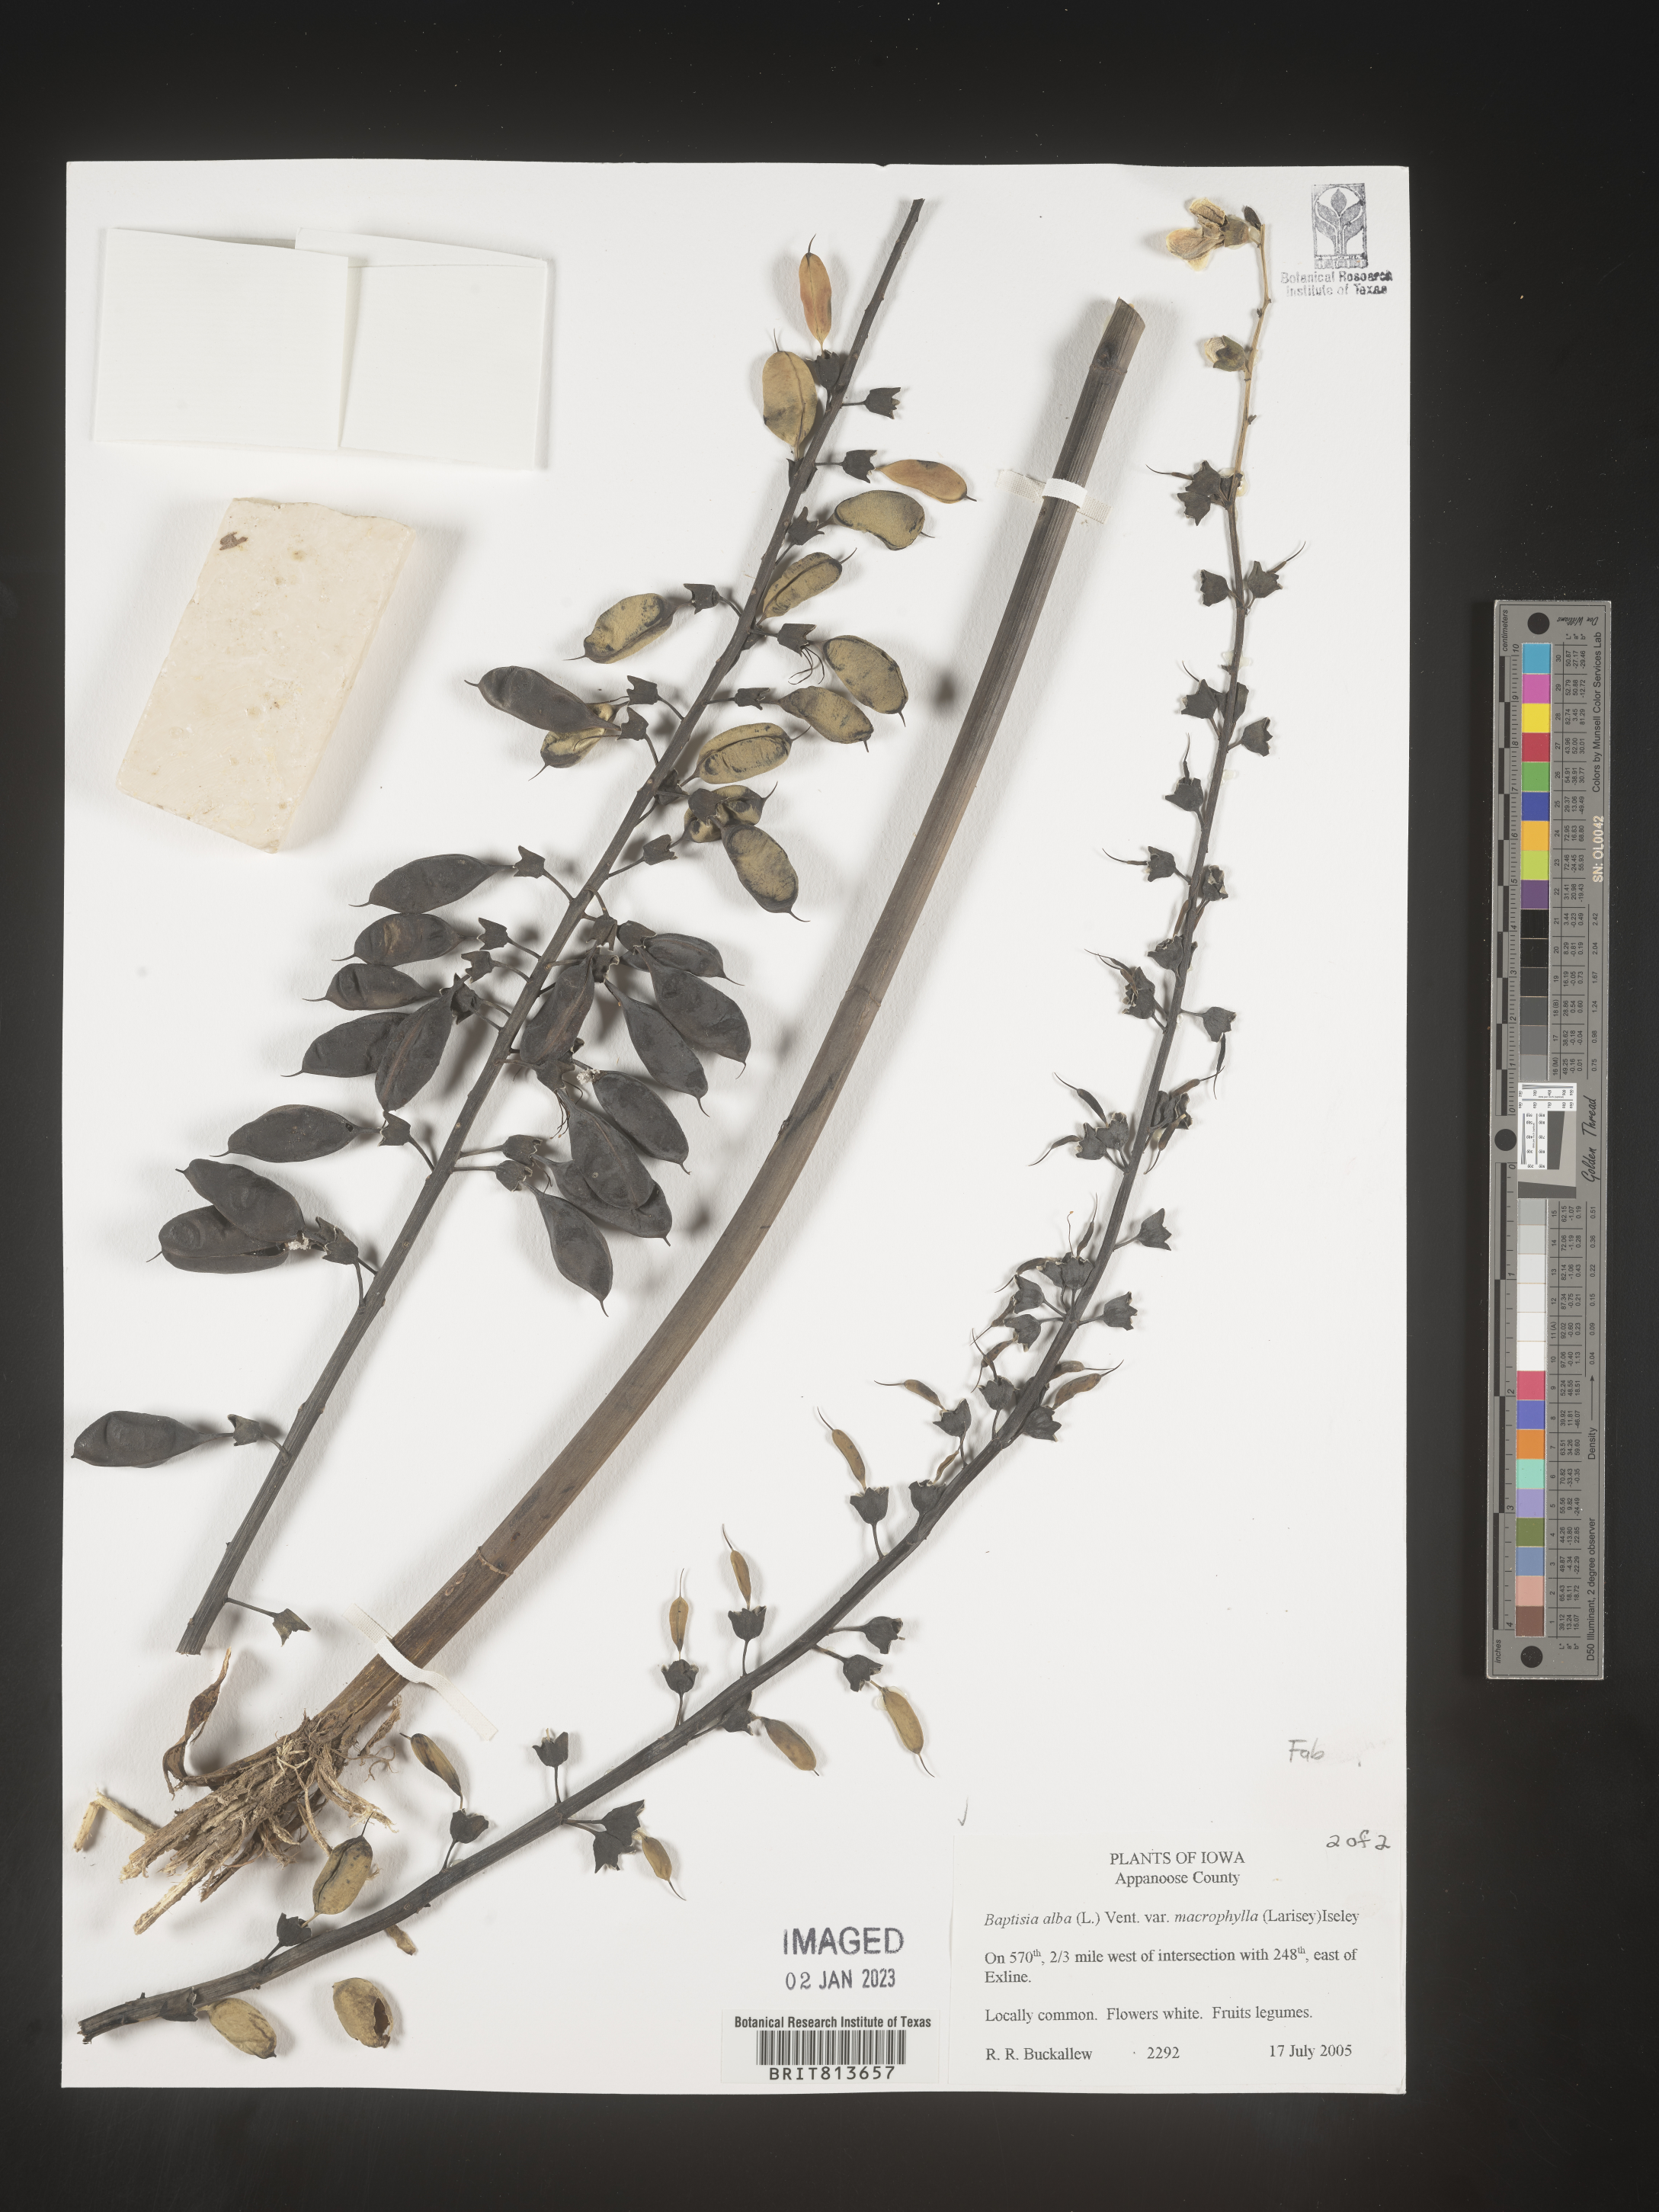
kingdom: Plantae
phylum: Tracheophyta
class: Magnoliopsida
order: Fabales
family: Fabaceae
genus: Baptisia
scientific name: Baptisia alba
